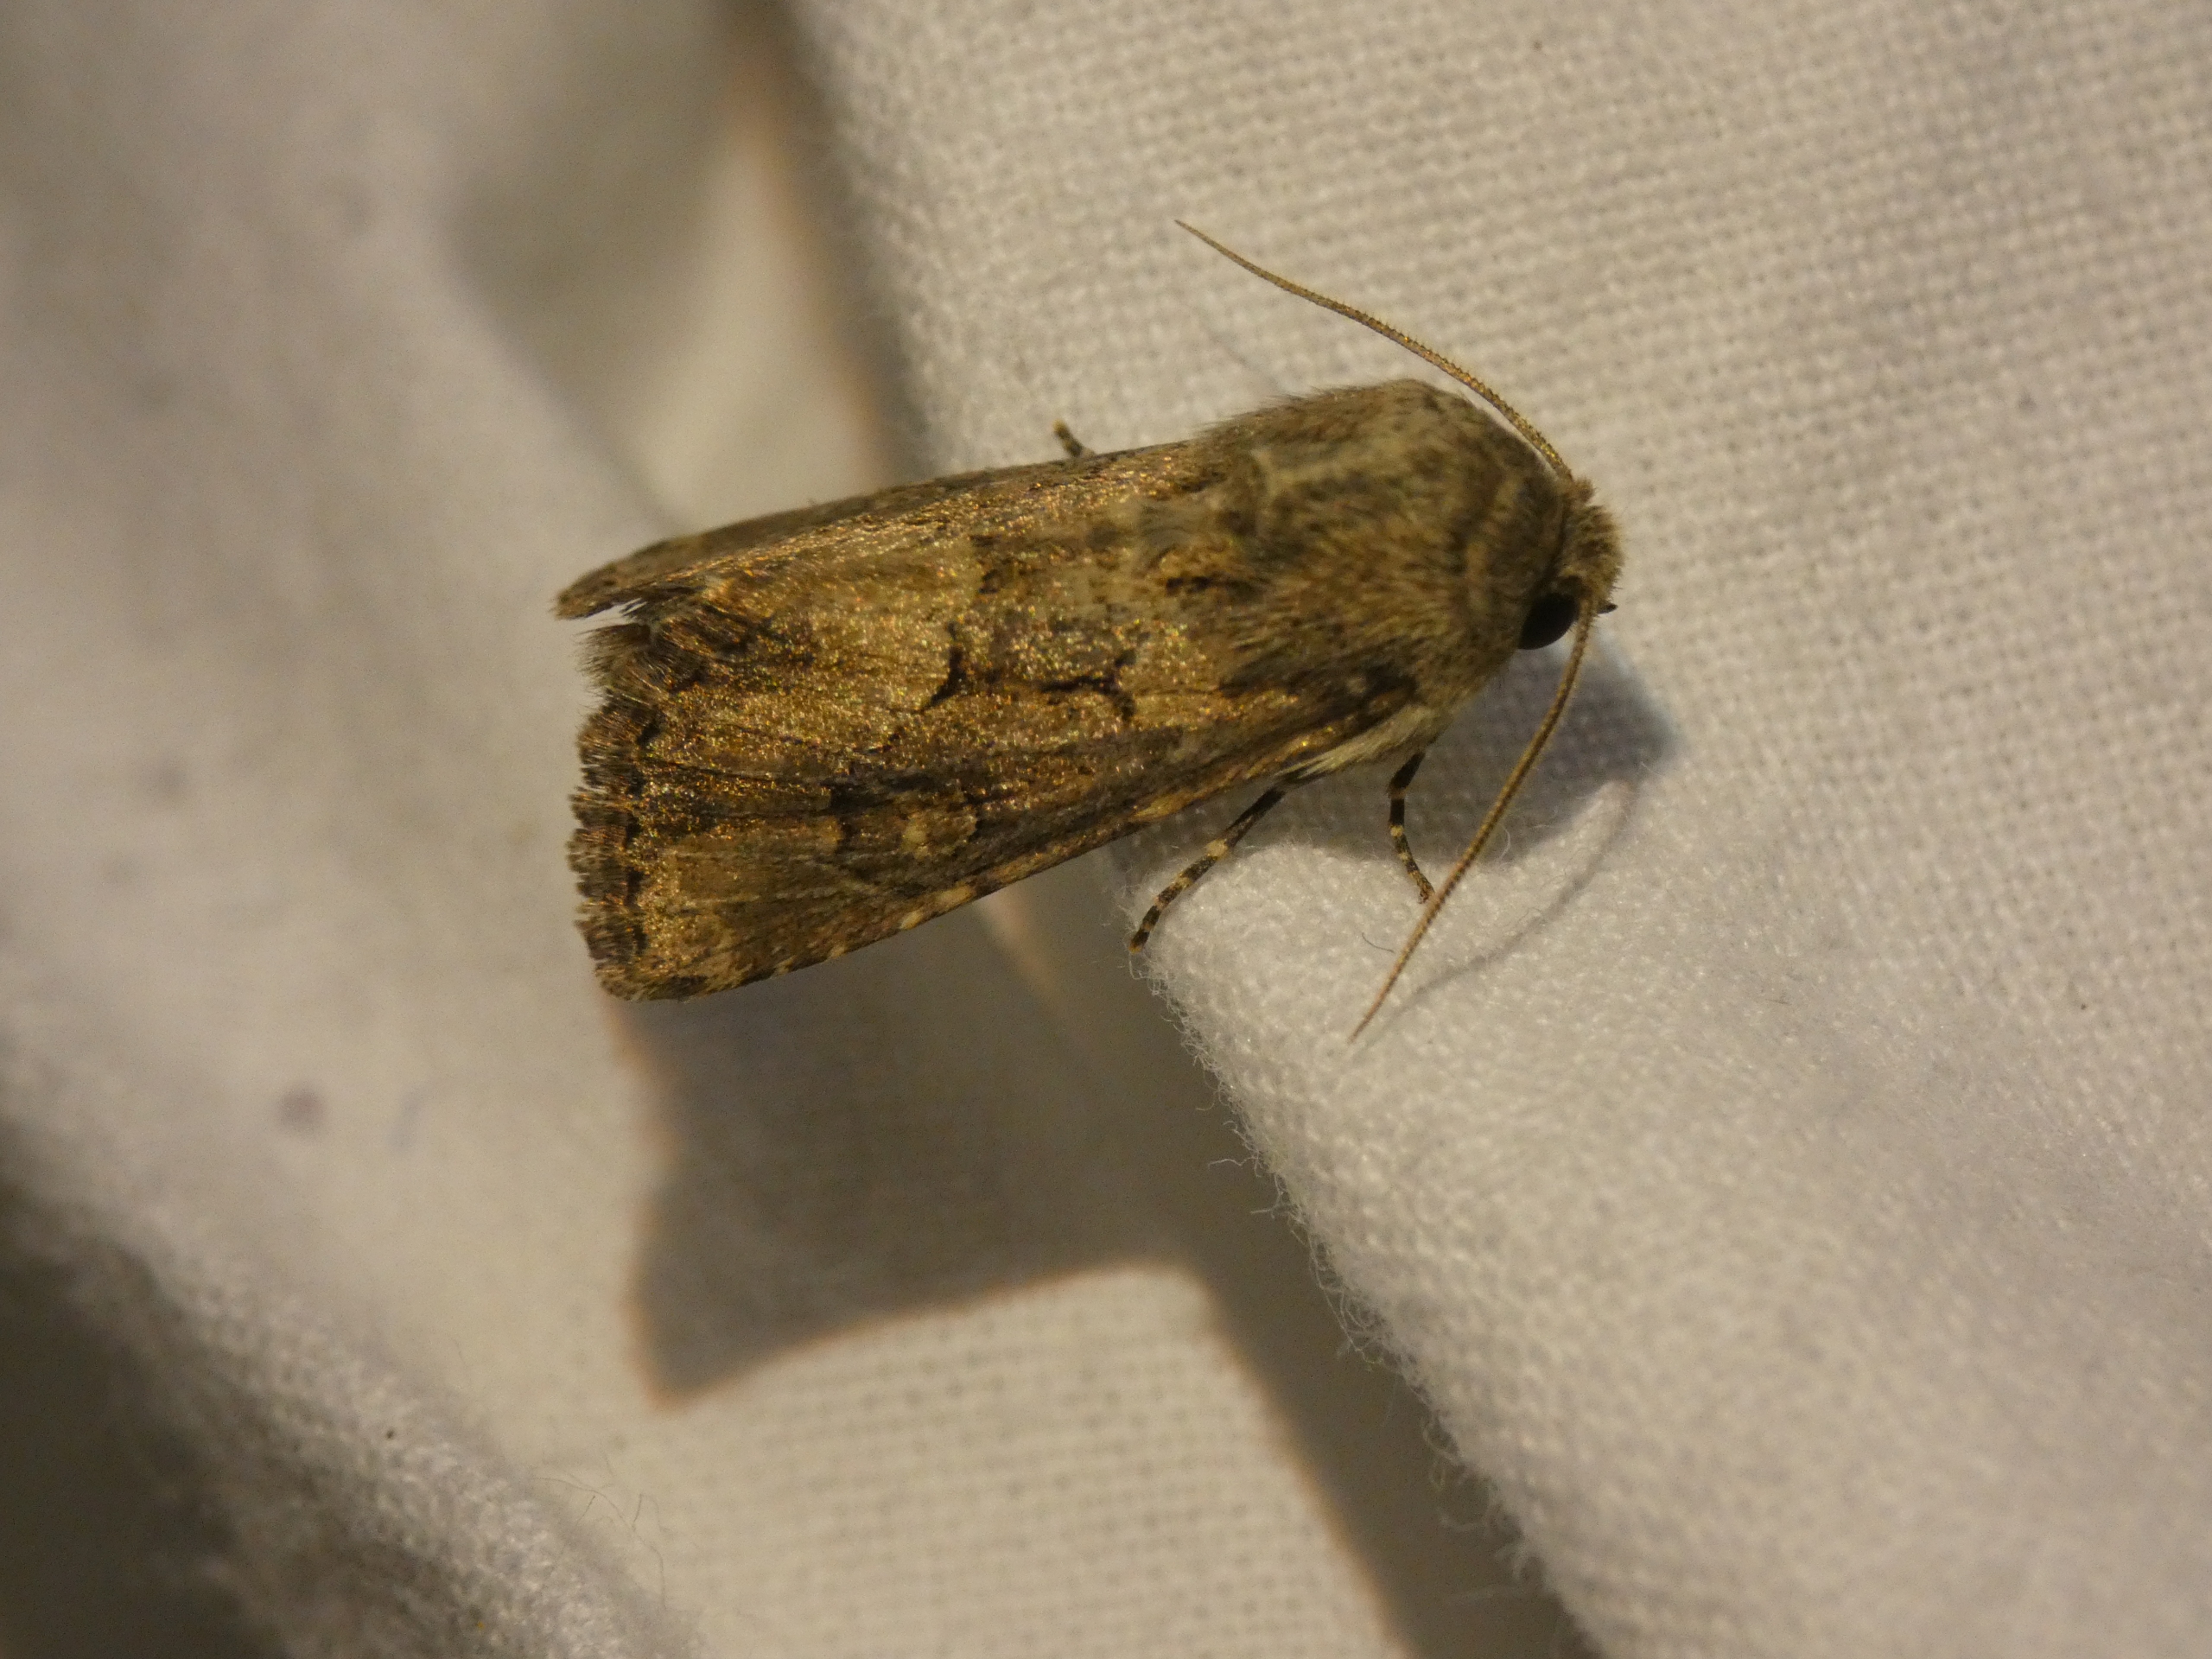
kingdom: Animalia
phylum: Arthropoda
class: Insecta
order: Lepidoptera
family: Noctuidae
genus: Luperina
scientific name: Luperina testacea
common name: Frøgræsugle
